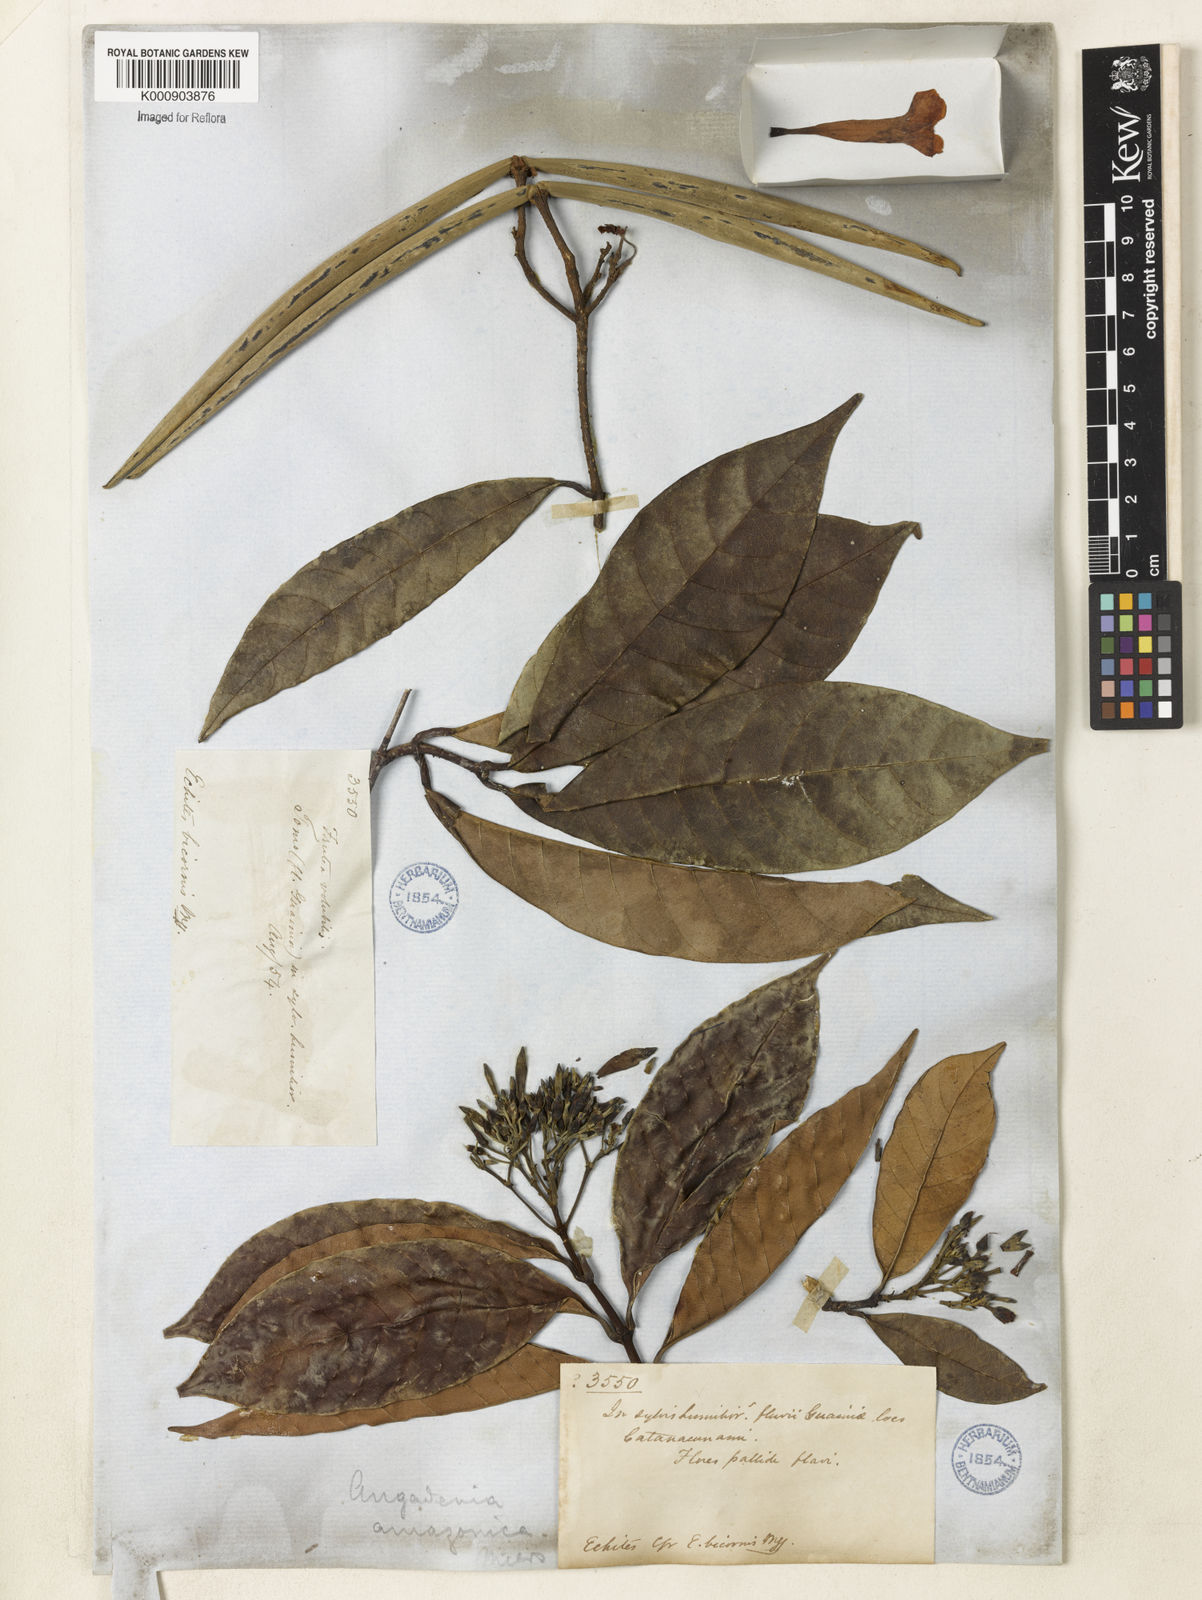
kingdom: Plantae
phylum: Tracheophyta
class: Magnoliopsida
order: Gentianales
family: Apocynaceae
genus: Odontadenia
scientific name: Odontadenia verrucosa
